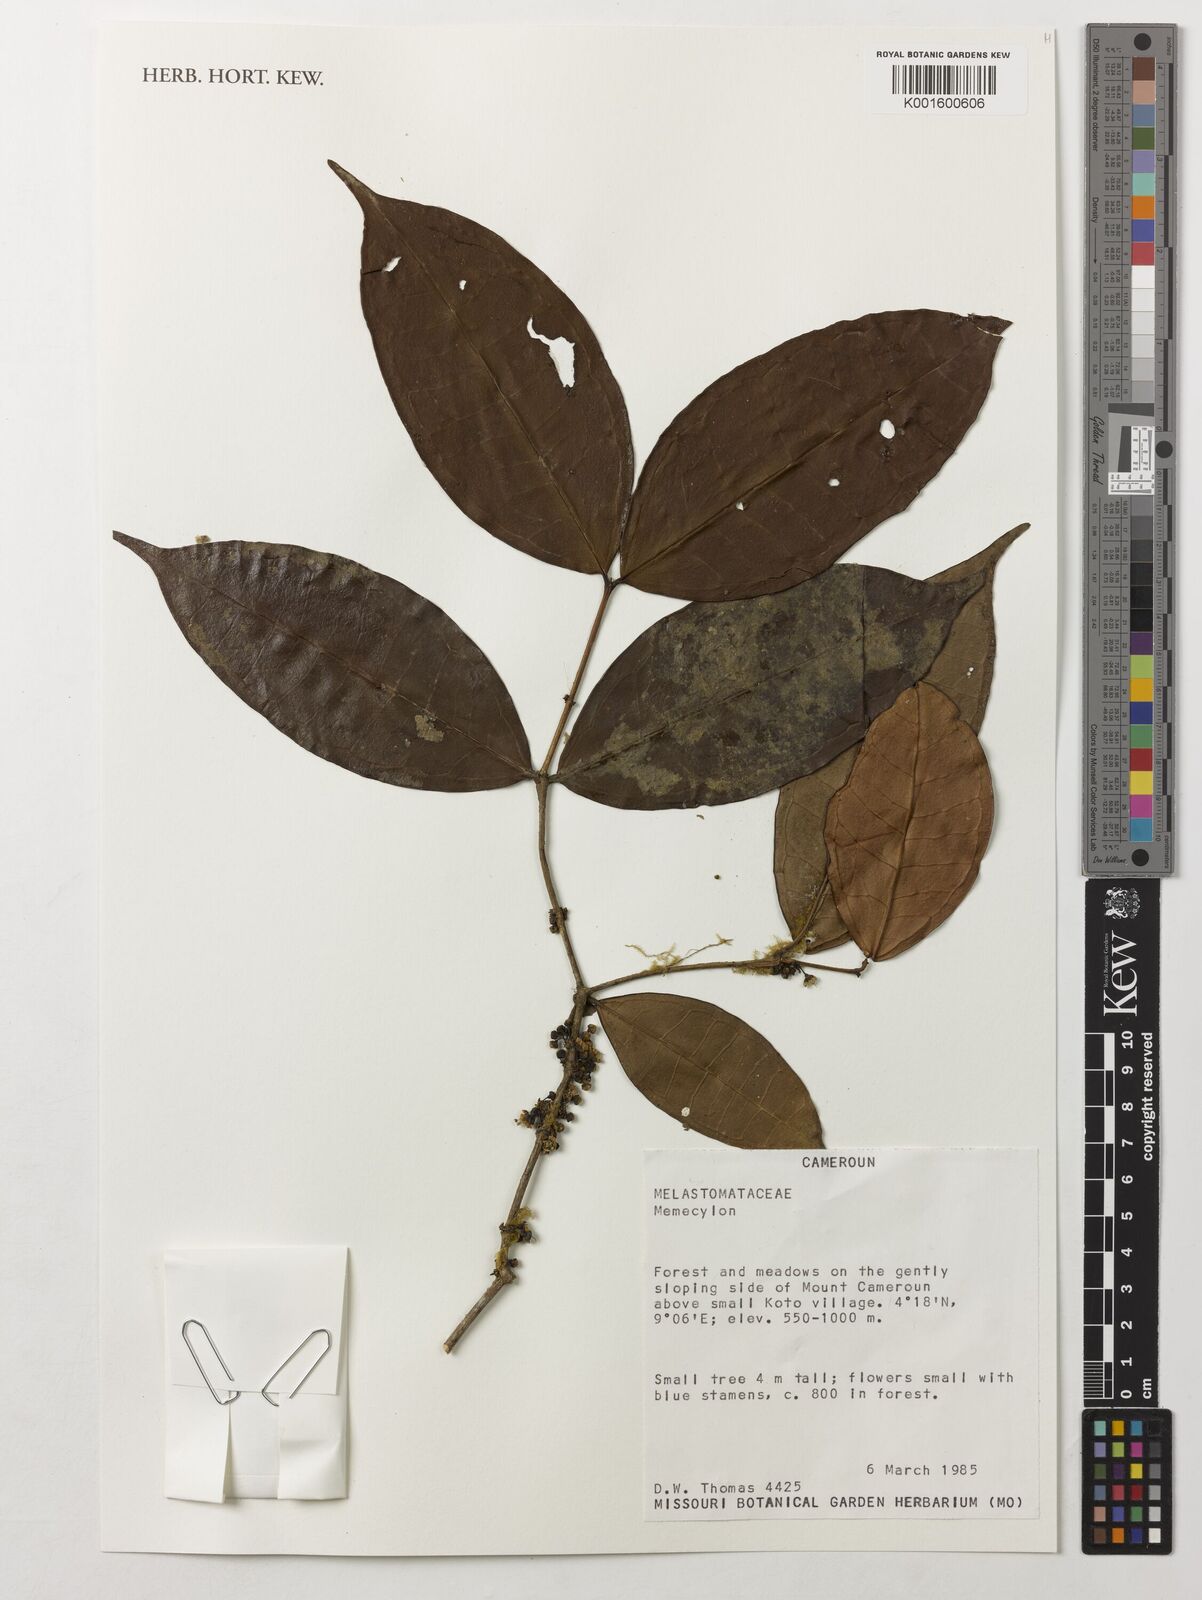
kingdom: Plantae
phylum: Tracheophyta
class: Magnoliopsida
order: Myrtales
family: Melastomataceae
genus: Memecylon
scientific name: Memecylon
